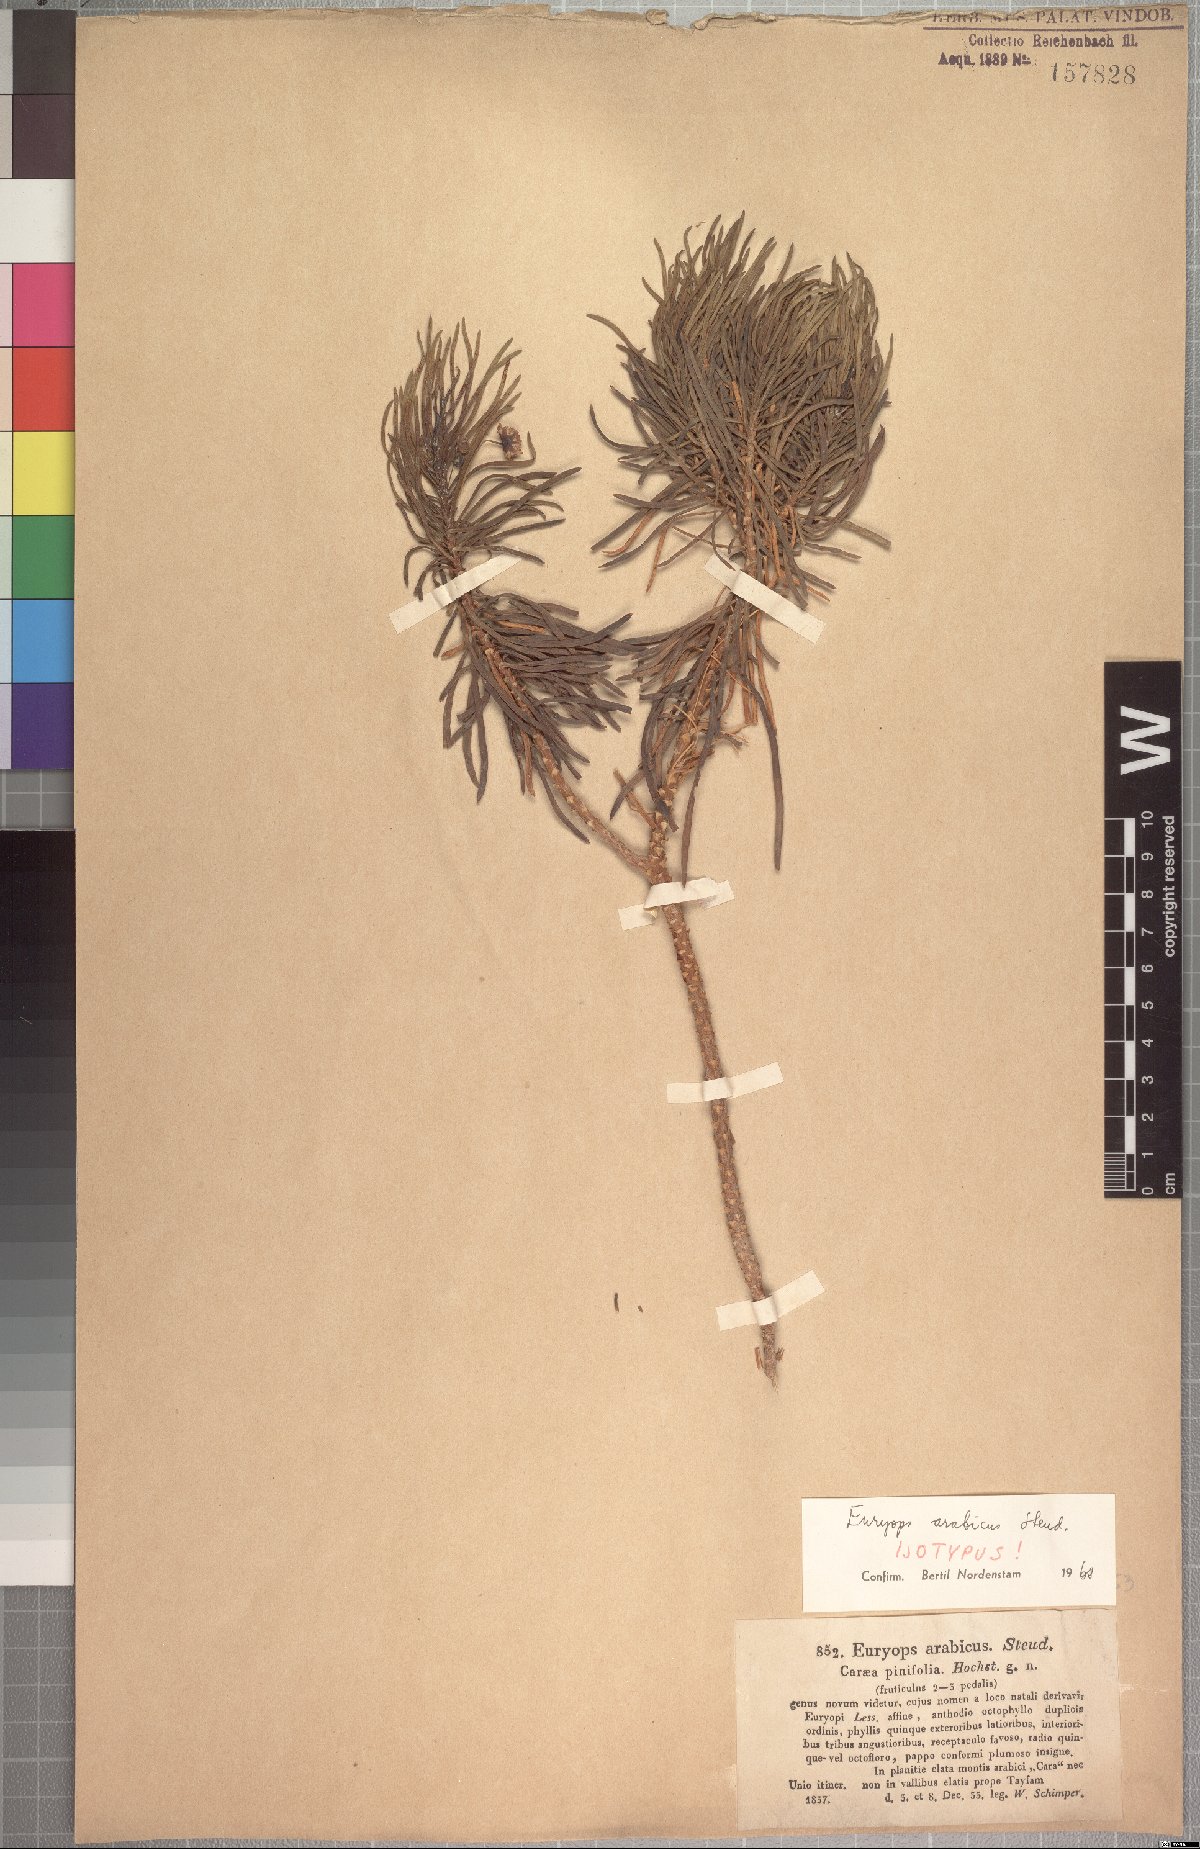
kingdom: Plantae
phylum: Tracheophyta
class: Magnoliopsida
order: Asterales
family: Asteraceae
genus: Euryops
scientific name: Euryops arabicus
